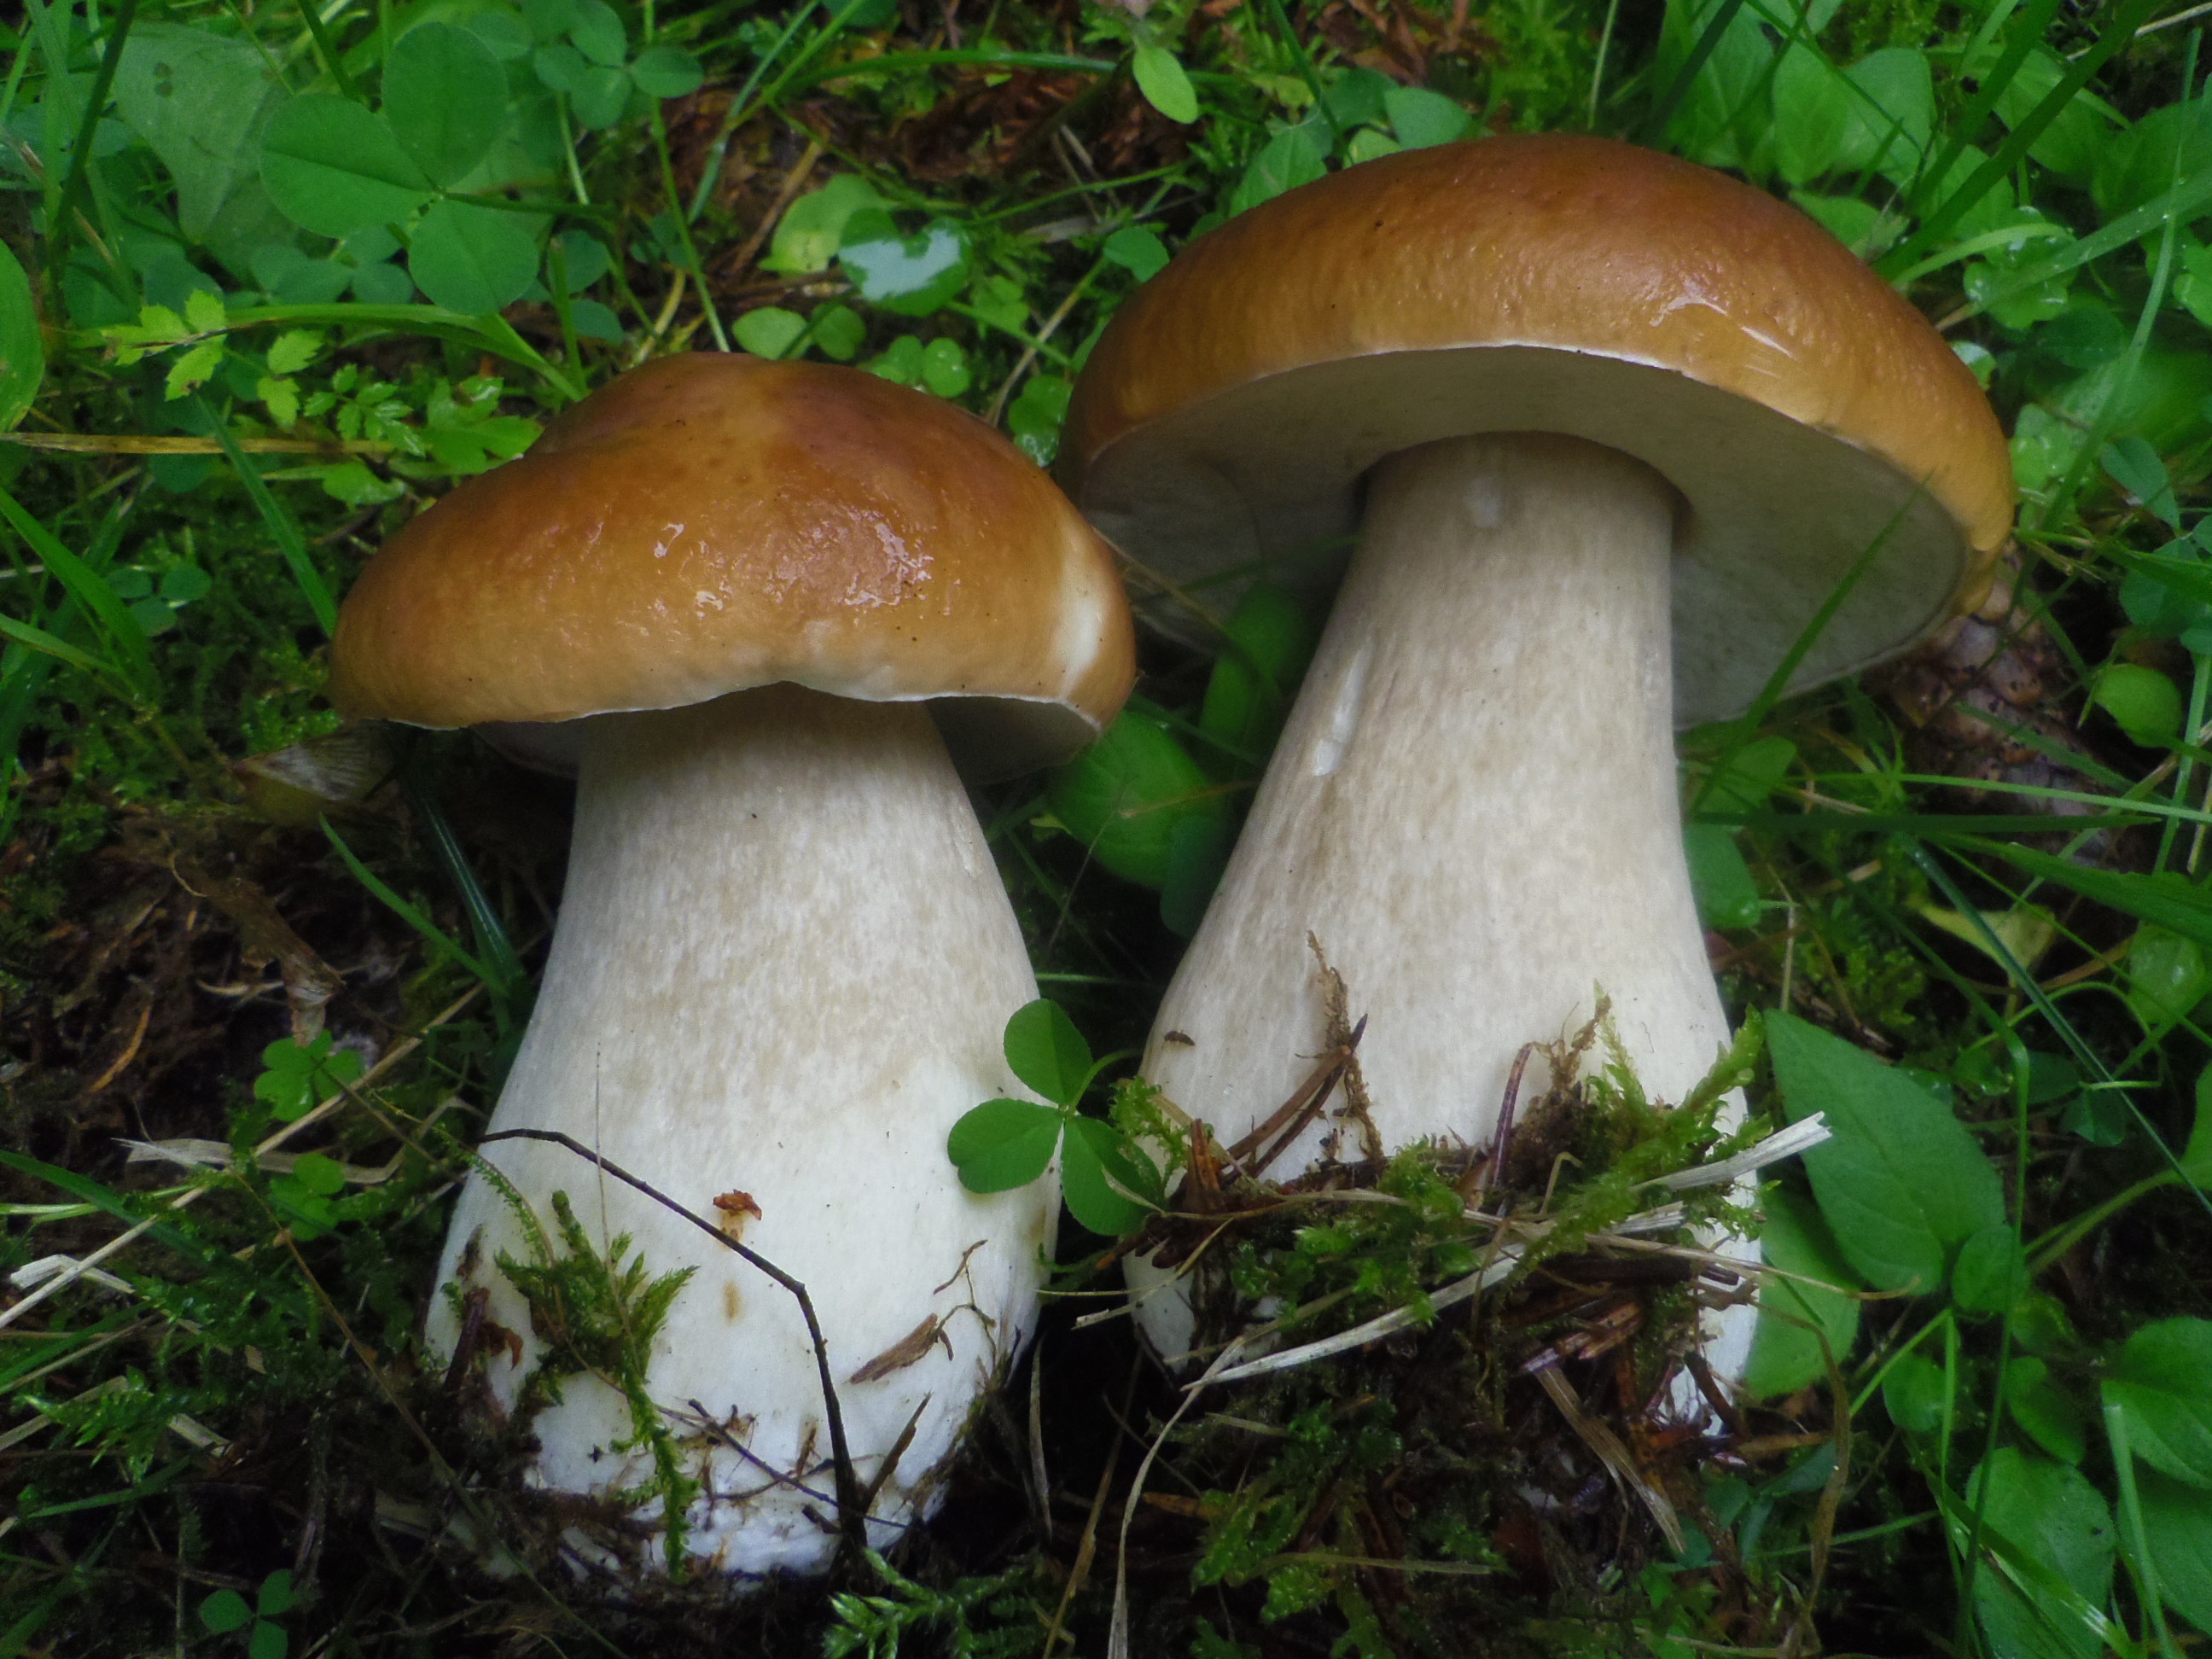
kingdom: Fungi
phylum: Basidiomycota
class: Agaricomycetes
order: Boletales
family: Boletaceae
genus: Boletus
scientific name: Boletus edulis
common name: Cep
